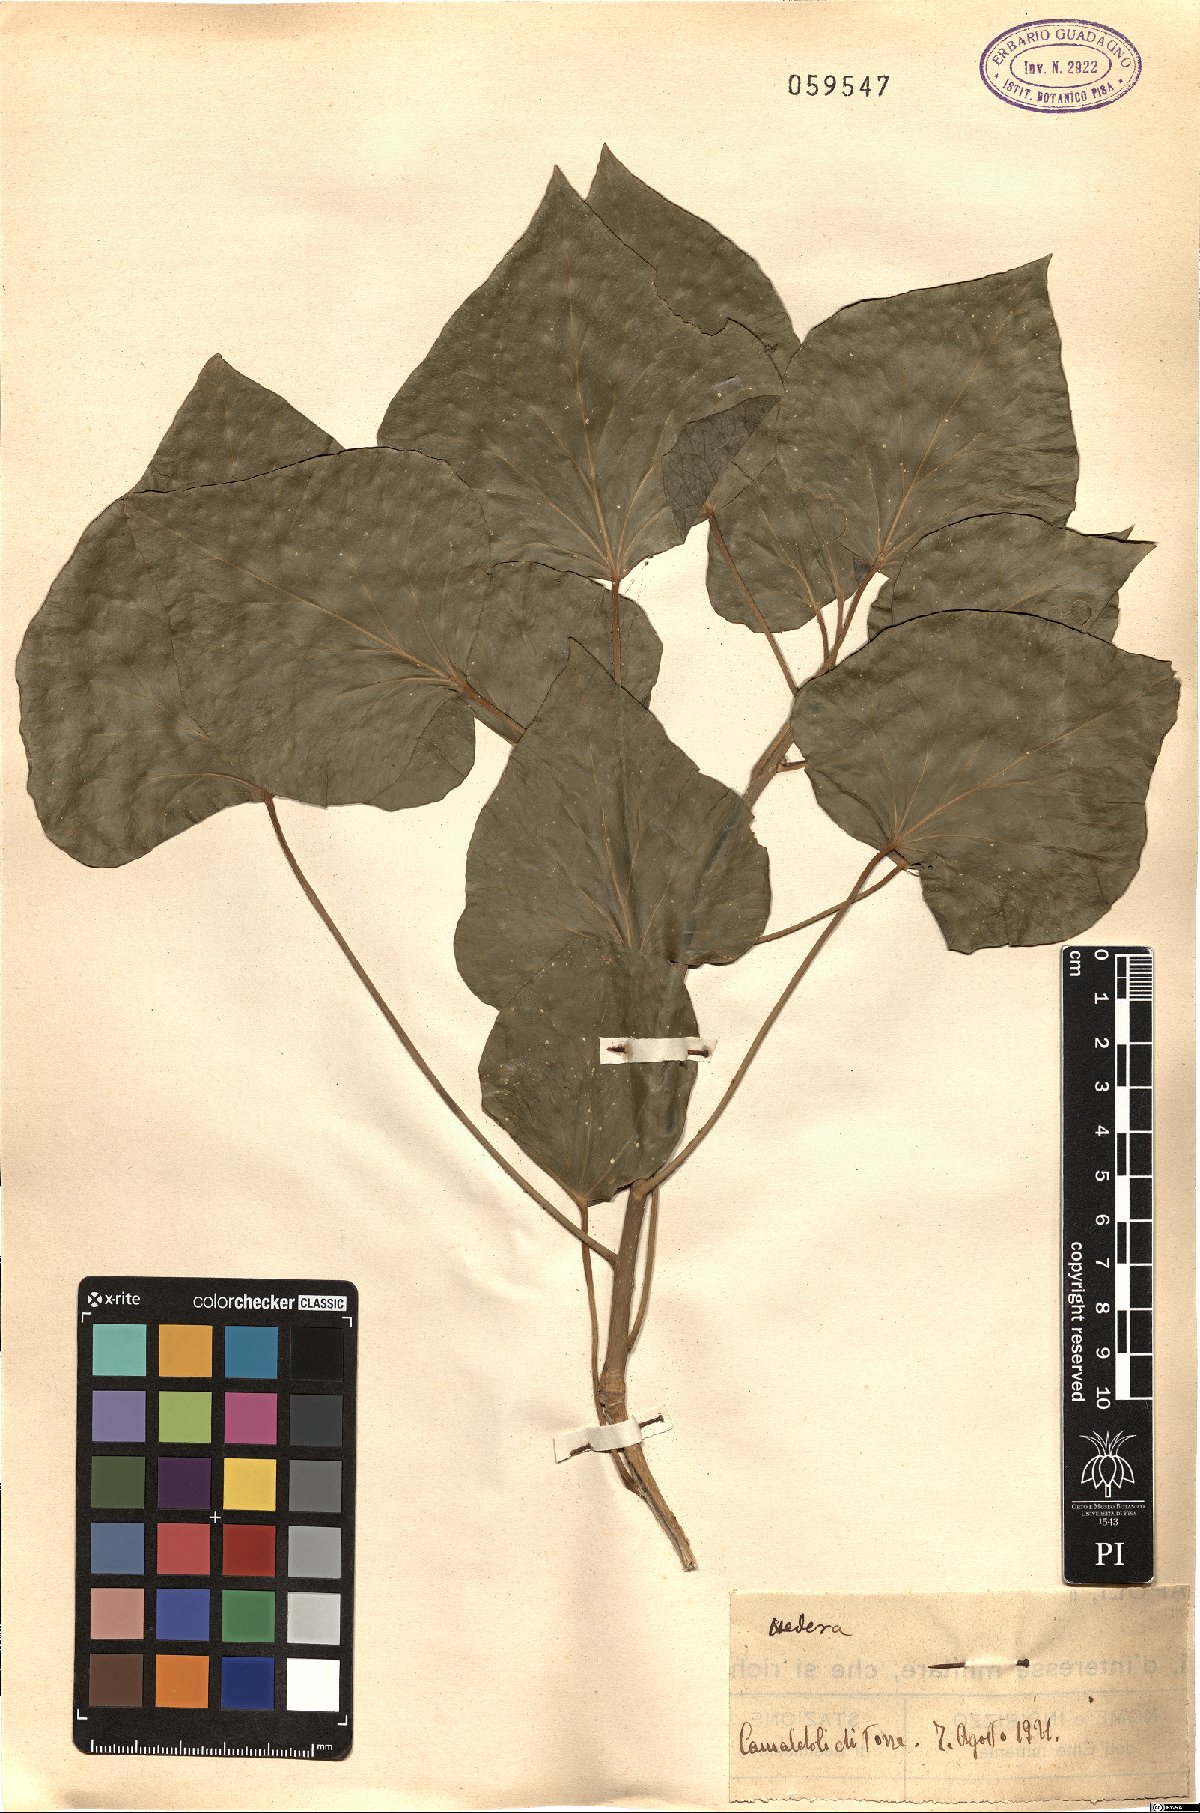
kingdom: Plantae
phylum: Tracheophyta
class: Magnoliopsida
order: Apiales
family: Araliaceae
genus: Hedera
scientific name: Hedera helix
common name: Ivy
